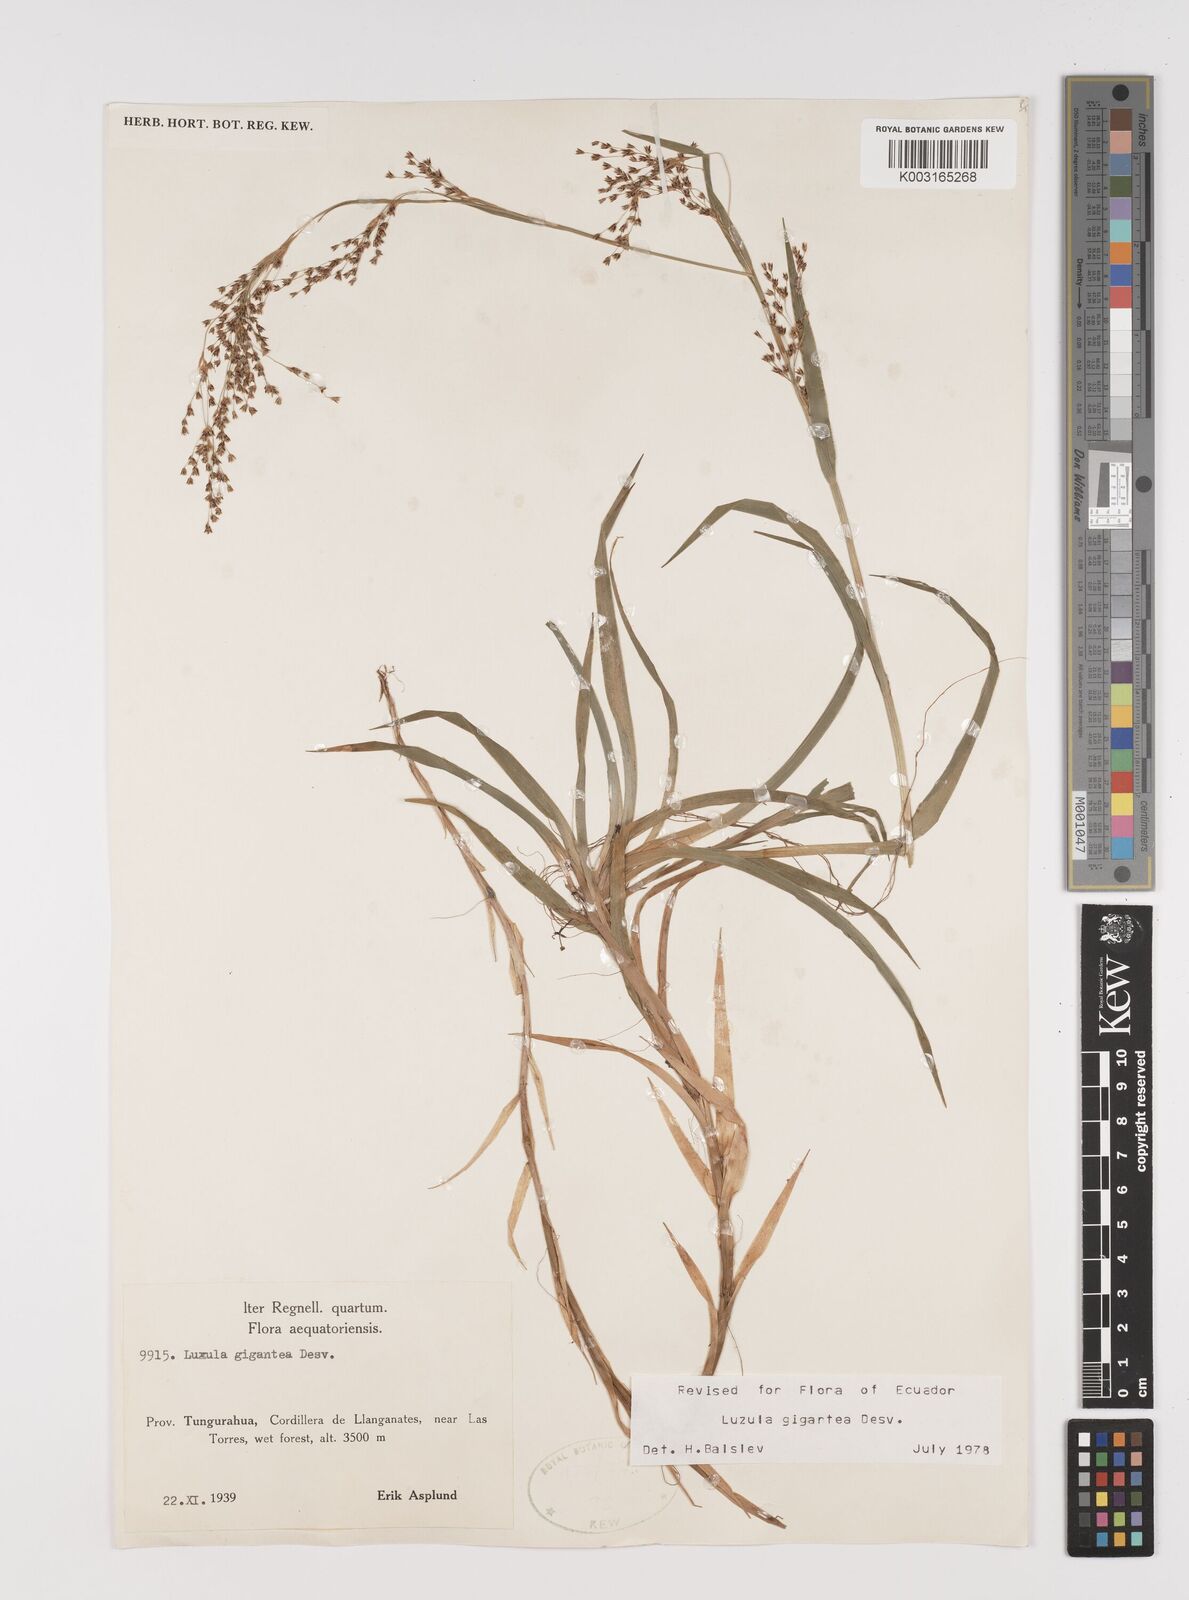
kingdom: Plantae
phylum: Tracheophyta
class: Liliopsida
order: Poales
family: Juncaceae
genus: Luzula
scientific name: Luzula gigantea
